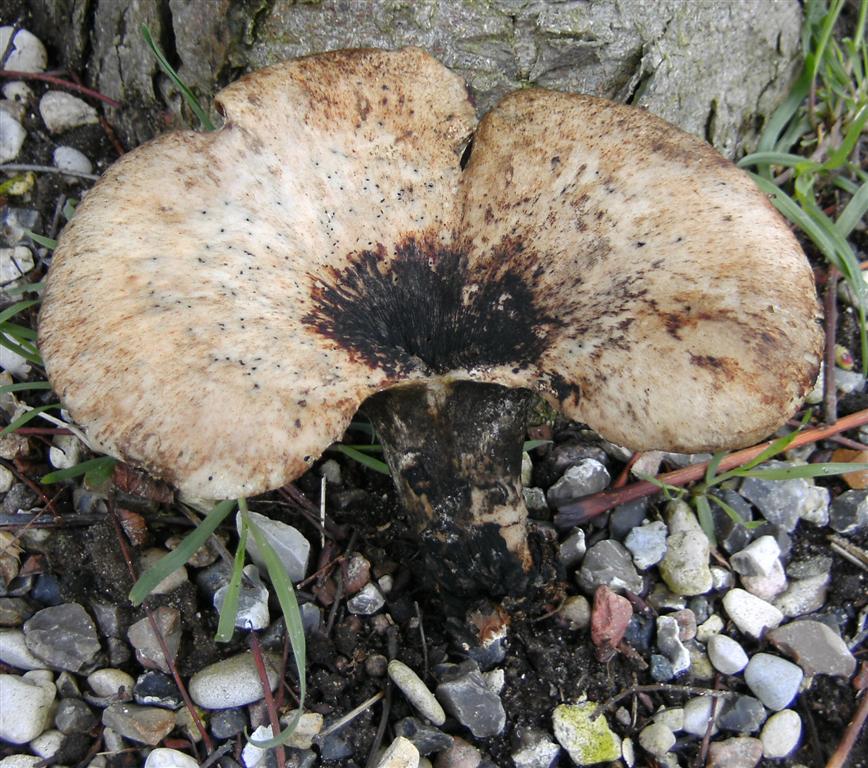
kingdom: Fungi
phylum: Basidiomycota
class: Agaricomycetes
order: Polyporales
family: Polyporaceae
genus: Cerioporus
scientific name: Cerioporus squamosus
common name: skællet stilkporesvamp
